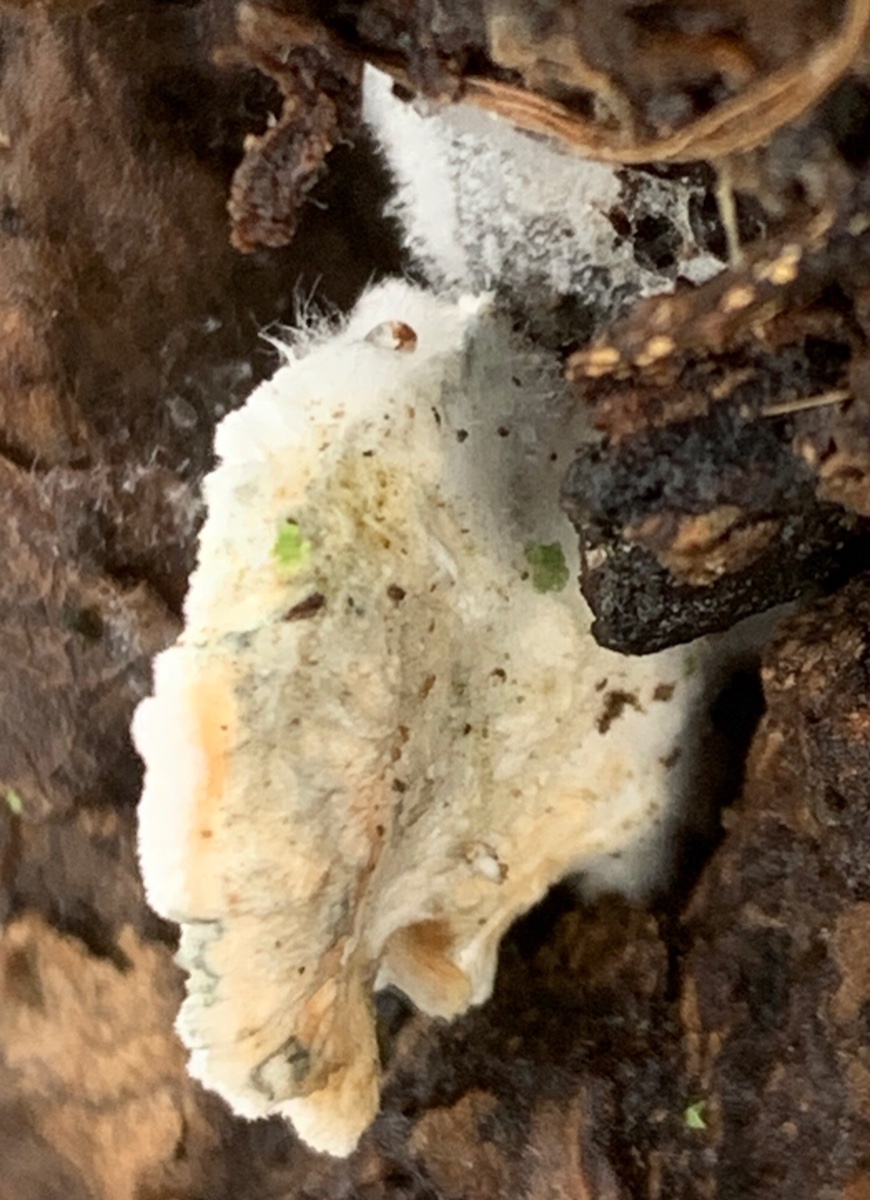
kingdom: Fungi
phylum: Basidiomycota
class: Agaricomycetes
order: Polyporales
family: Incrustoporiaceae
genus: Tyromyces
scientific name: Tyromyces lacteus
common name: mælkehvid kødporesvamp
